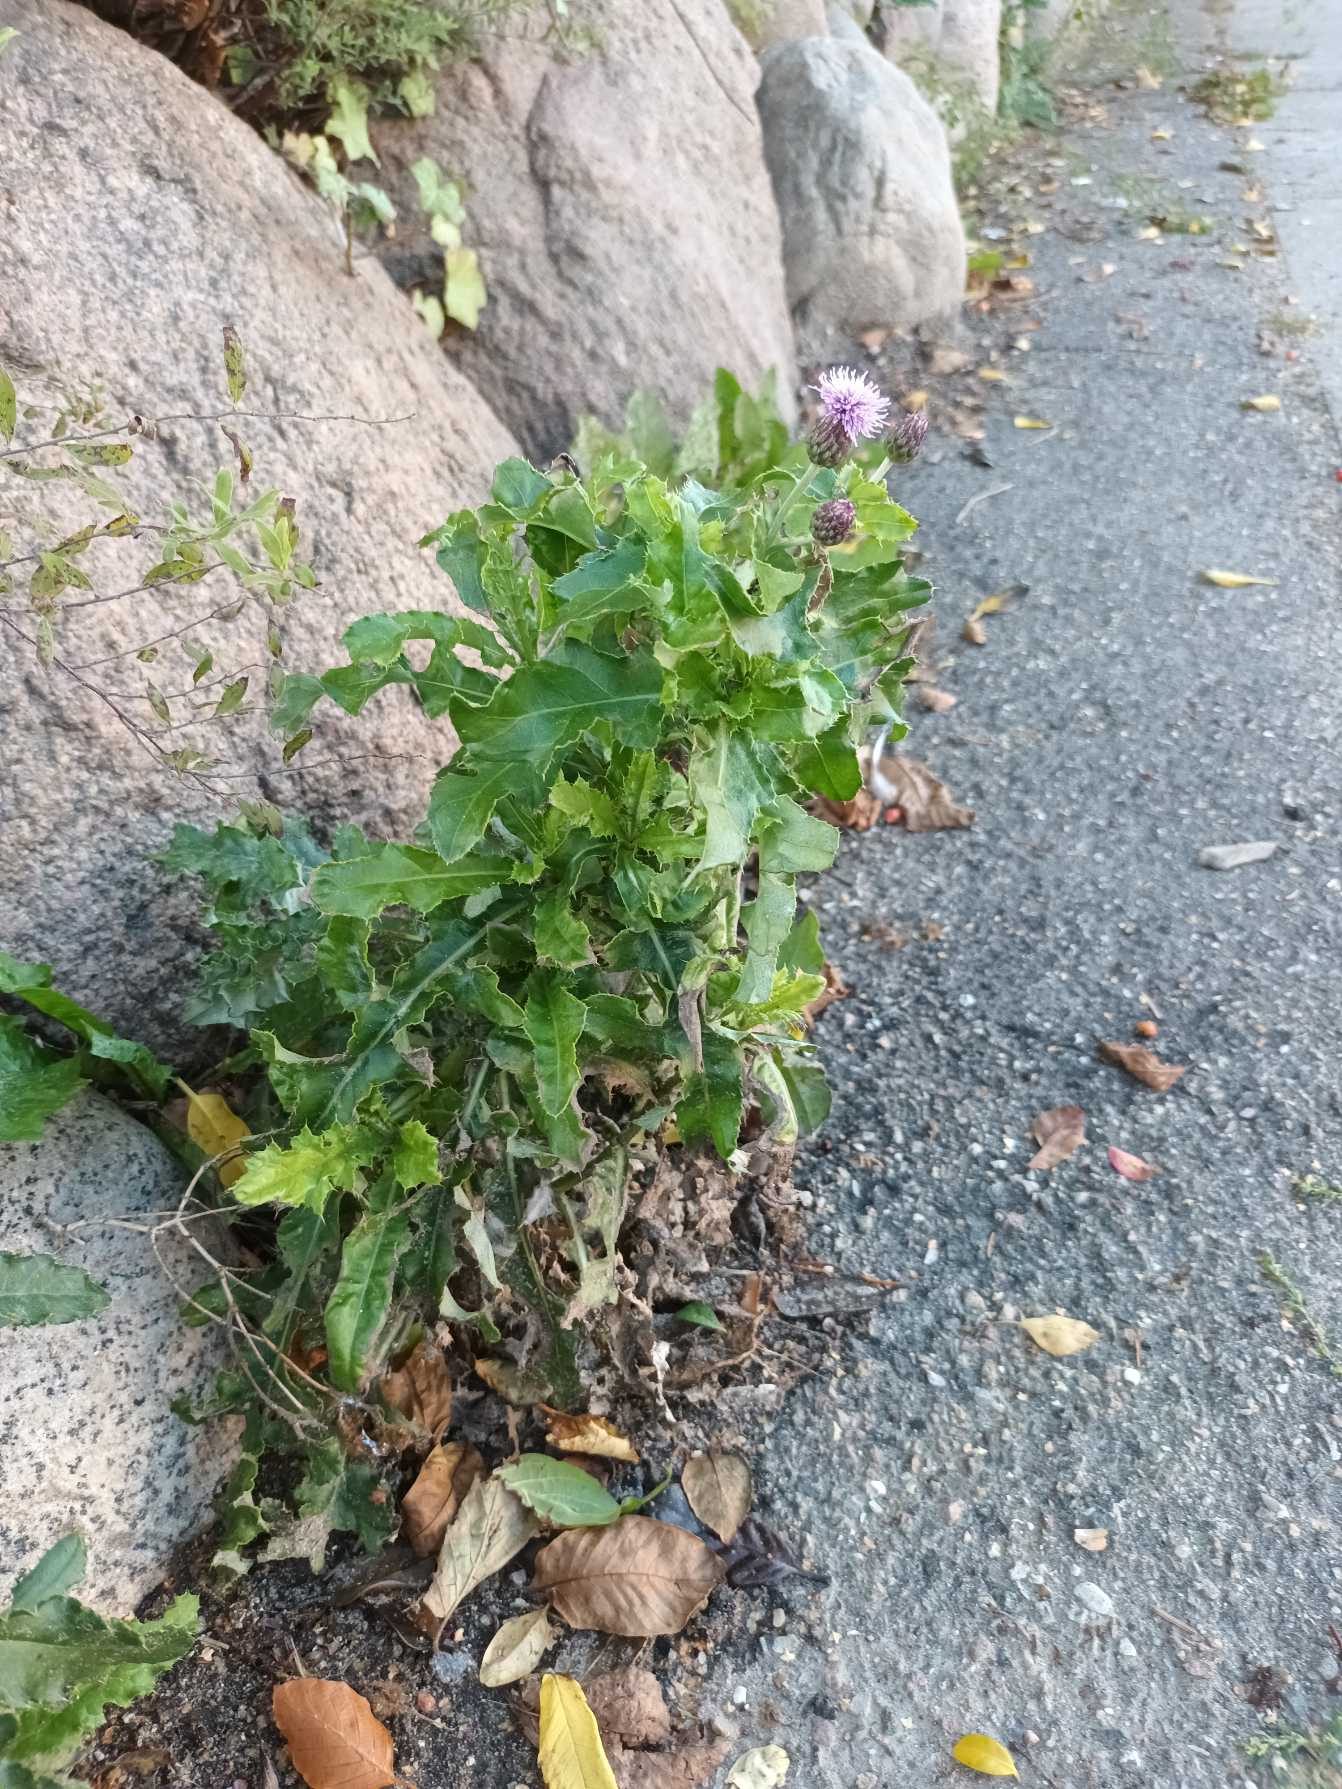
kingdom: Plantae
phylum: Tracheophyta
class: Magnoliopsida
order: Asterales
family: Asteraceae
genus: Cirsium
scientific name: Cirsium arvense
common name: Ager-tidsel
